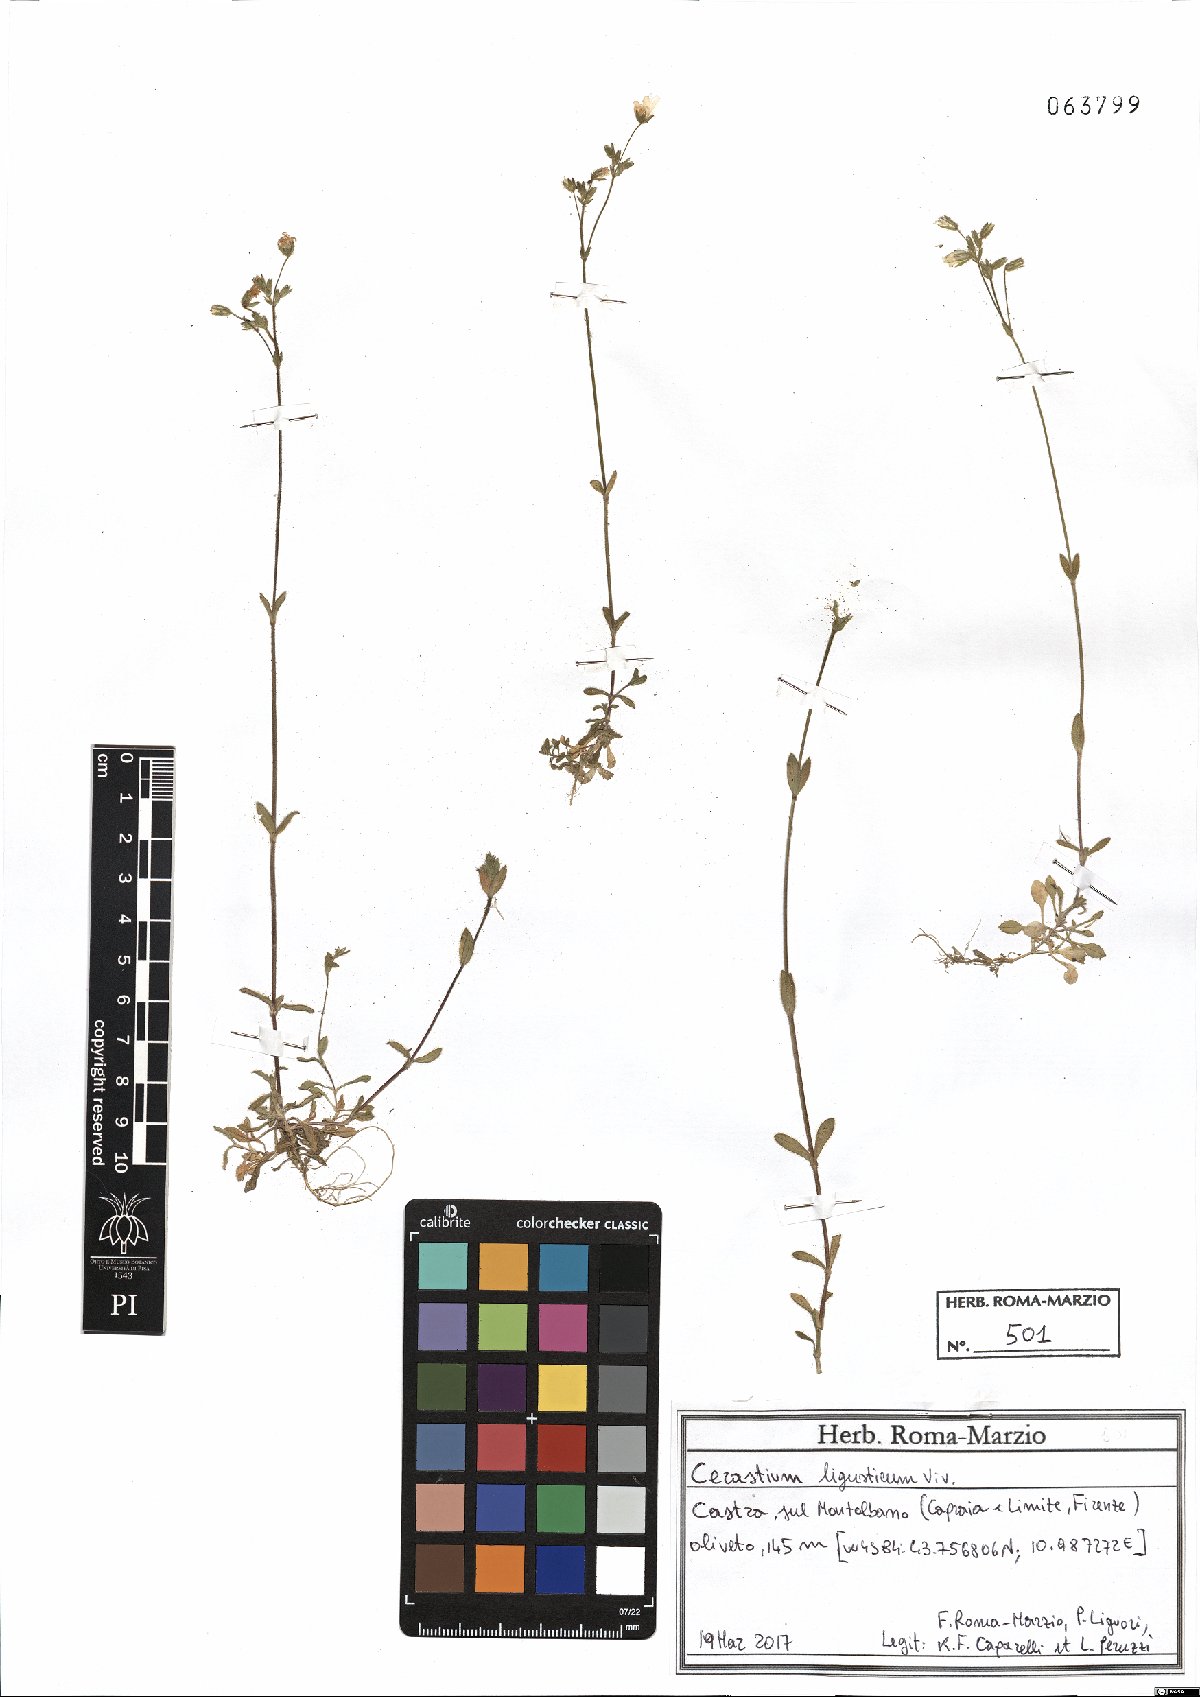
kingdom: Plantae
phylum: Tracheophyta
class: Magnoliopsida
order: Caryophyllales
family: Caryophyllaceae
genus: Cerastium
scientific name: Cerastium ligusticum
